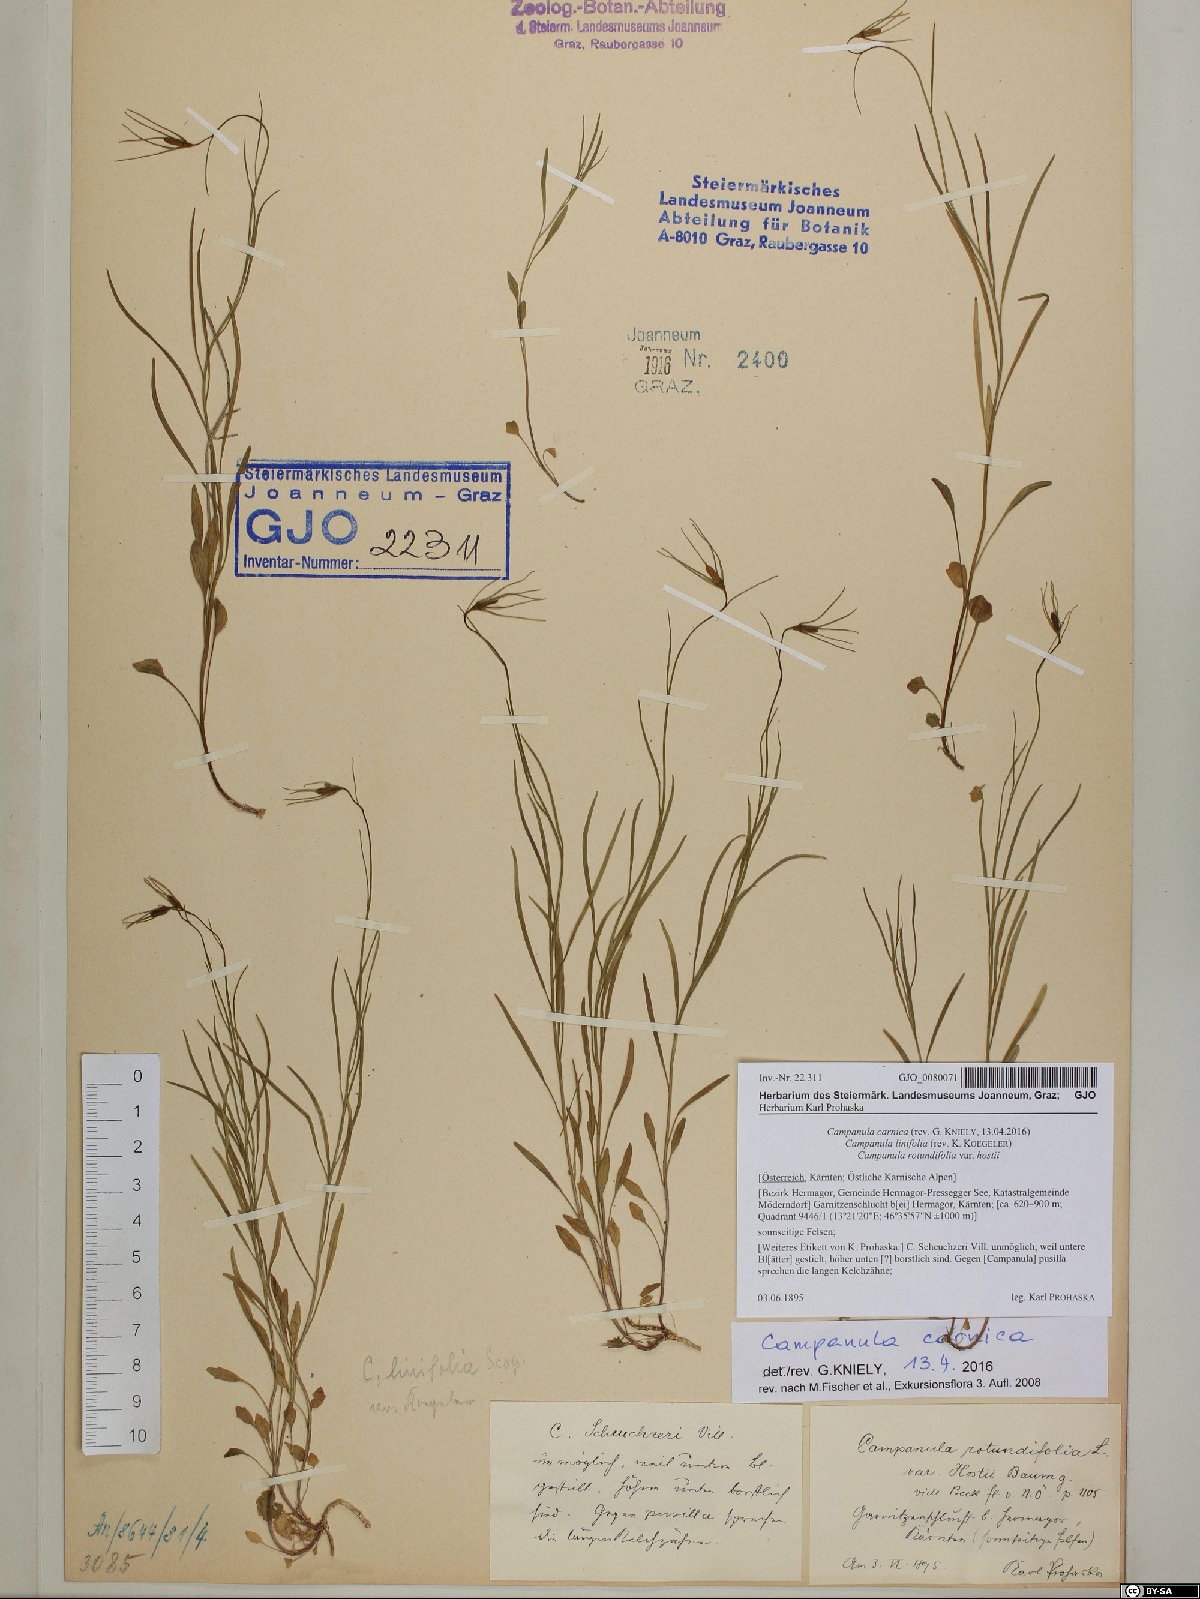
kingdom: Plantae
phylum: Tracheophyta
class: Magnoliopsida
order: Asterales
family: Campanulaceae
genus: Campanula
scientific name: Campanula carnica
